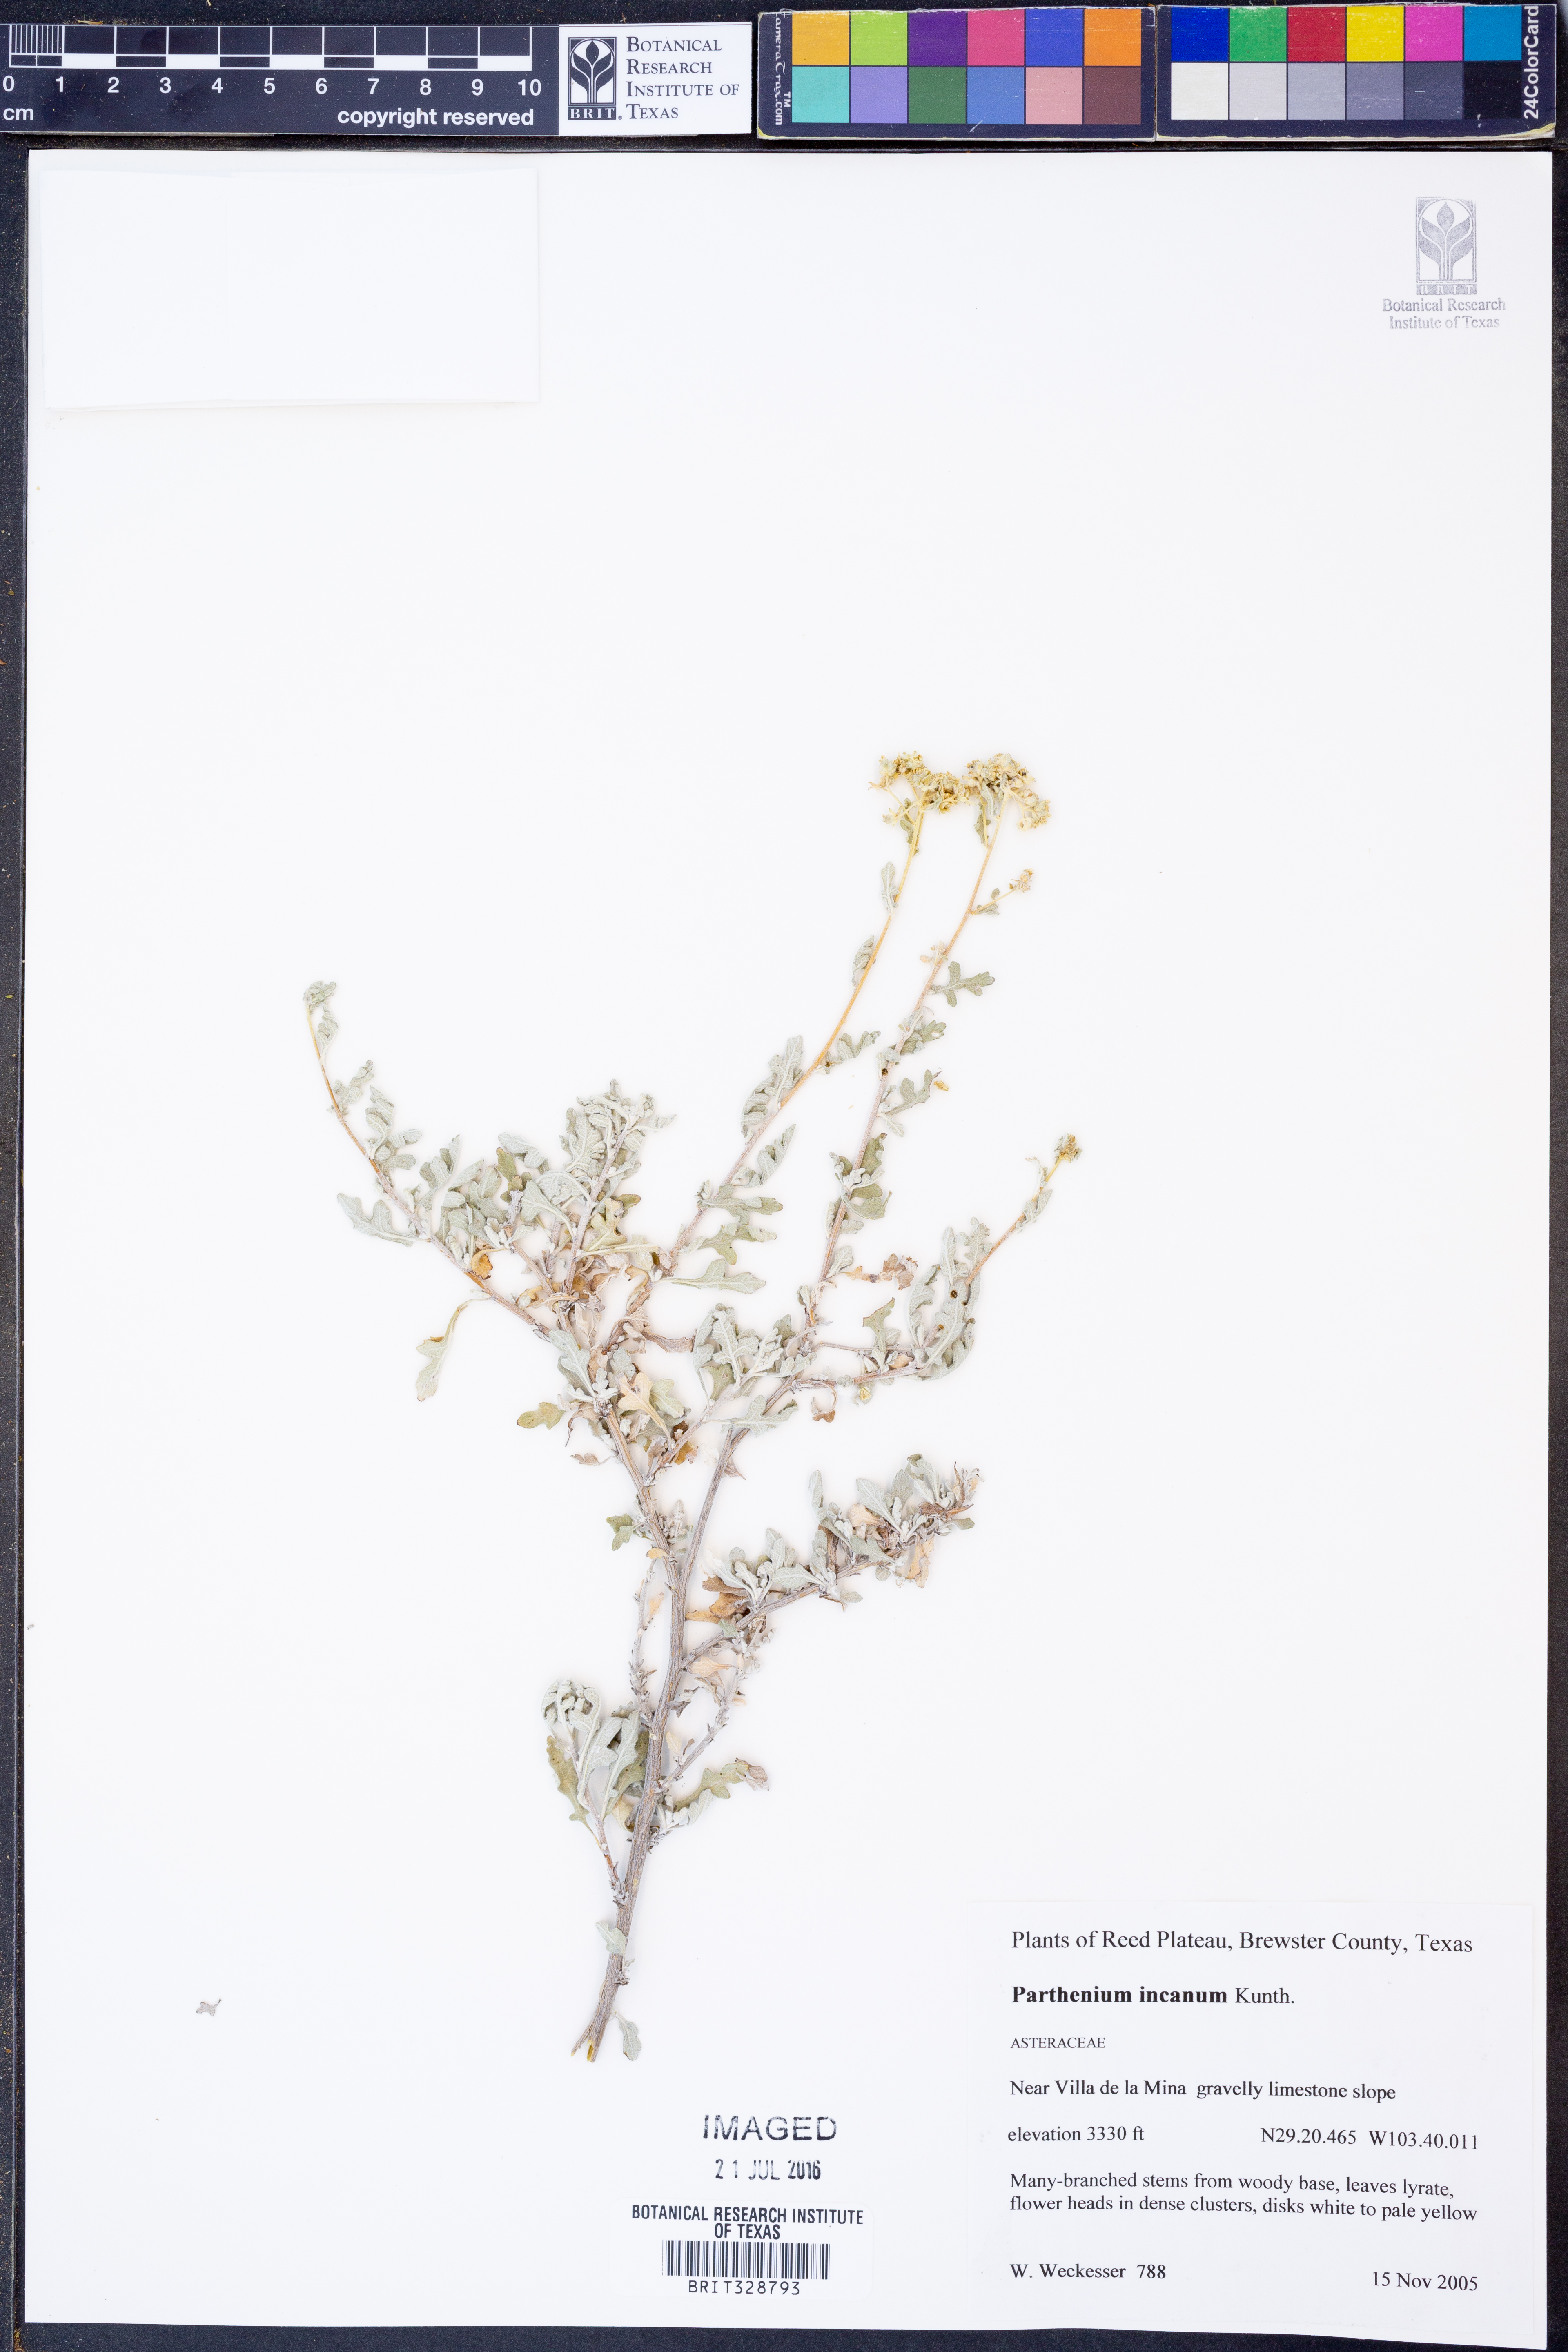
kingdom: Plantae
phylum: Tracheophyta
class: Magnoliopsida
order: Asterales
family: Asteraceae
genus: Parthenium
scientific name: Parthenium incanum
